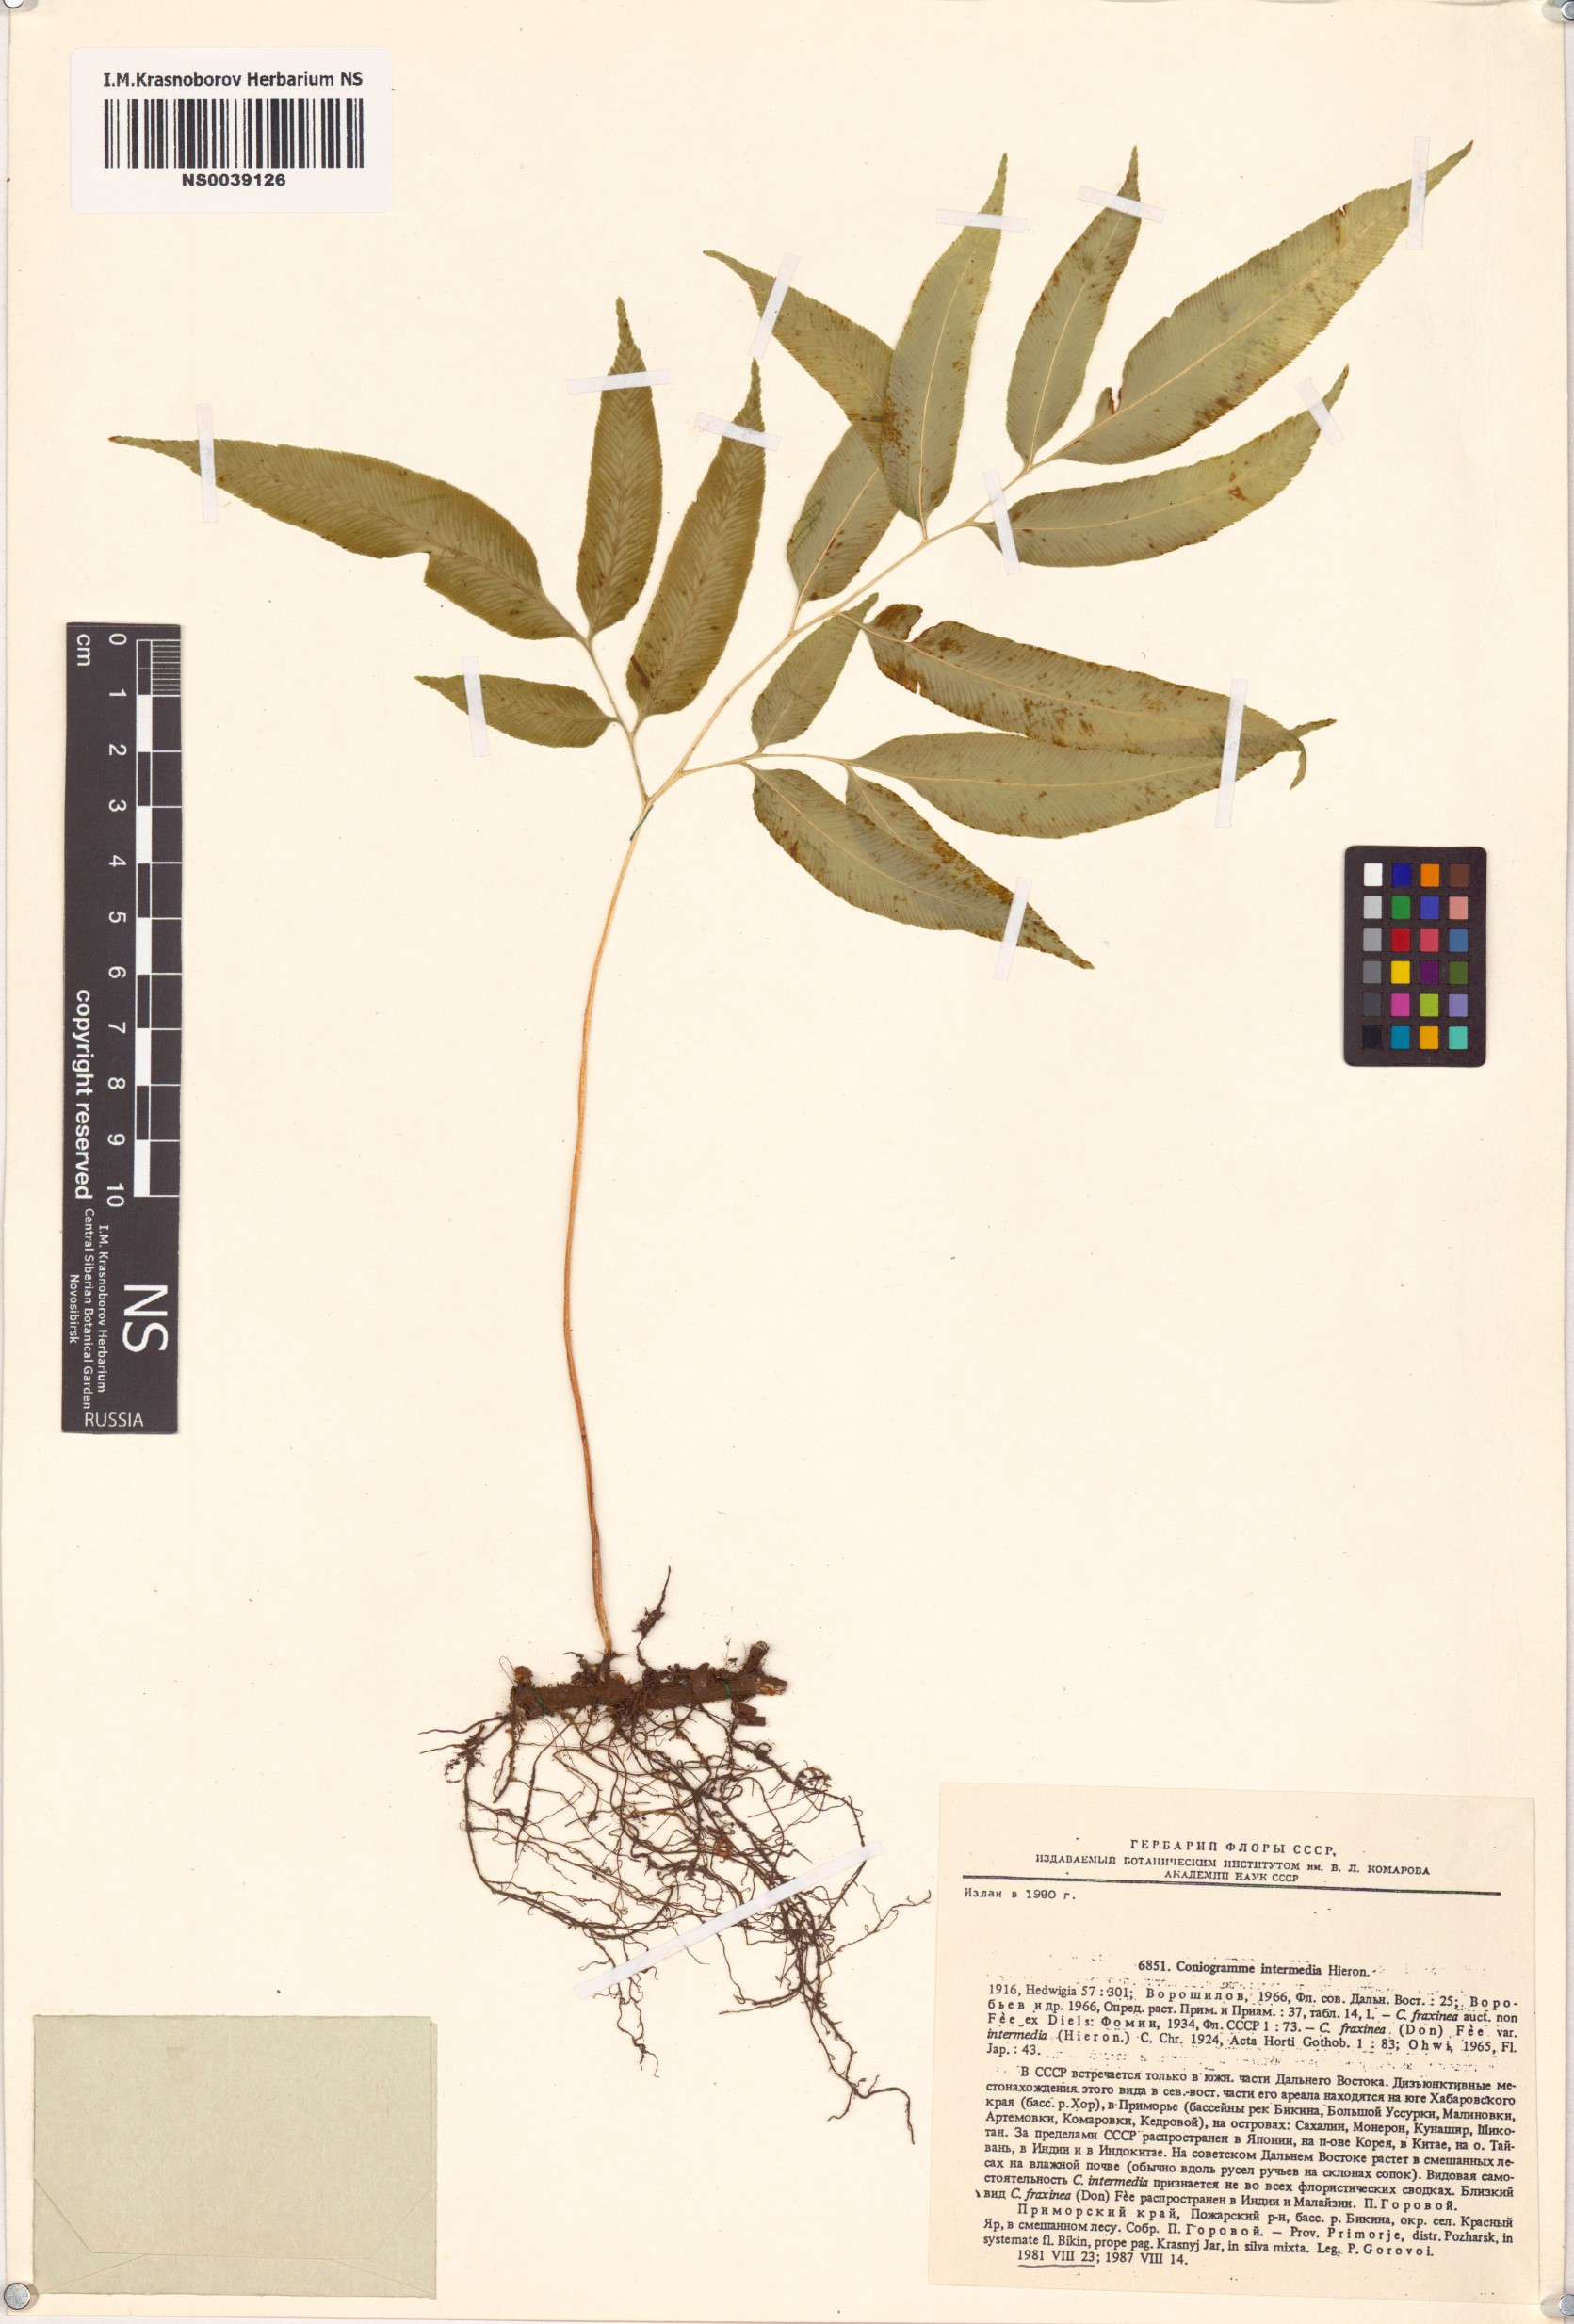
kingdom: Plantae
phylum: Tracheophyta
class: Polypodiopsida
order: Polypodiales
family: Pteridaceae
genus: Coniogramme
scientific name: Coniogramme intermedia
